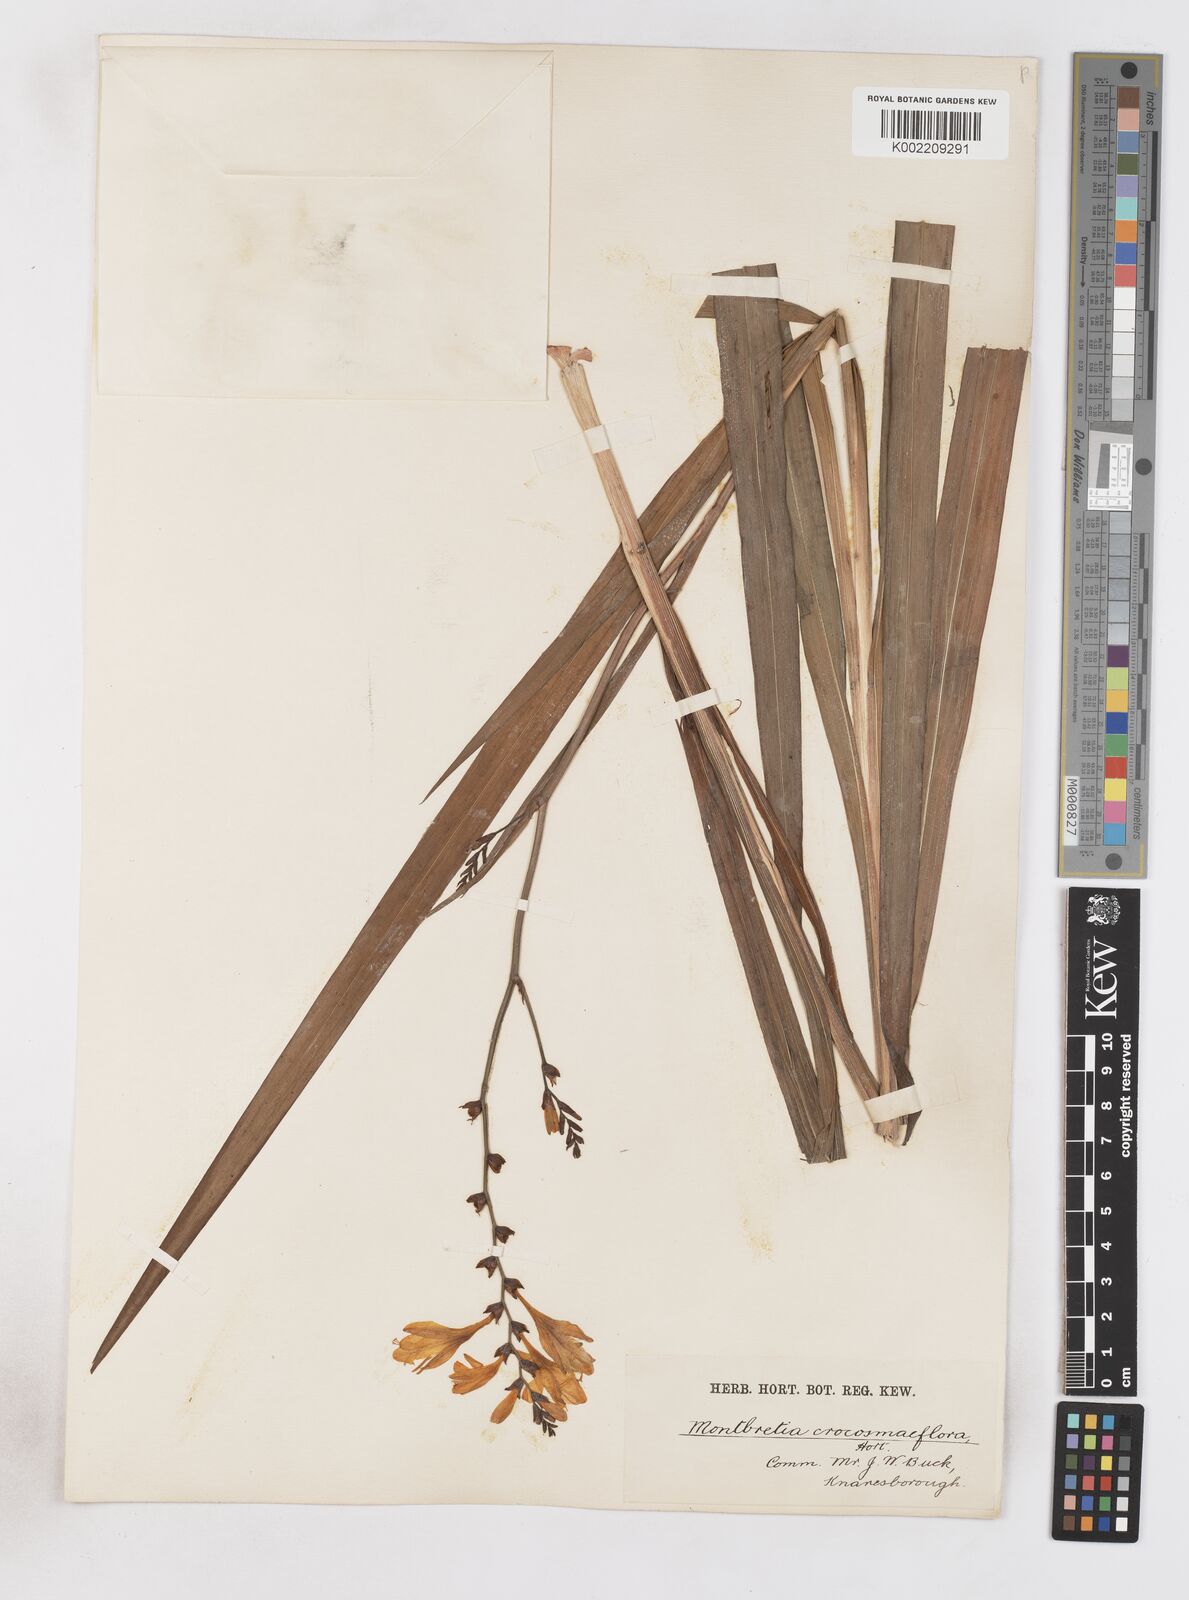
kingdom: Plantae
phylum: Tracheophyta
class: Liliopsida
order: Asparagales
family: Iridaceae
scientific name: Iridaceae
